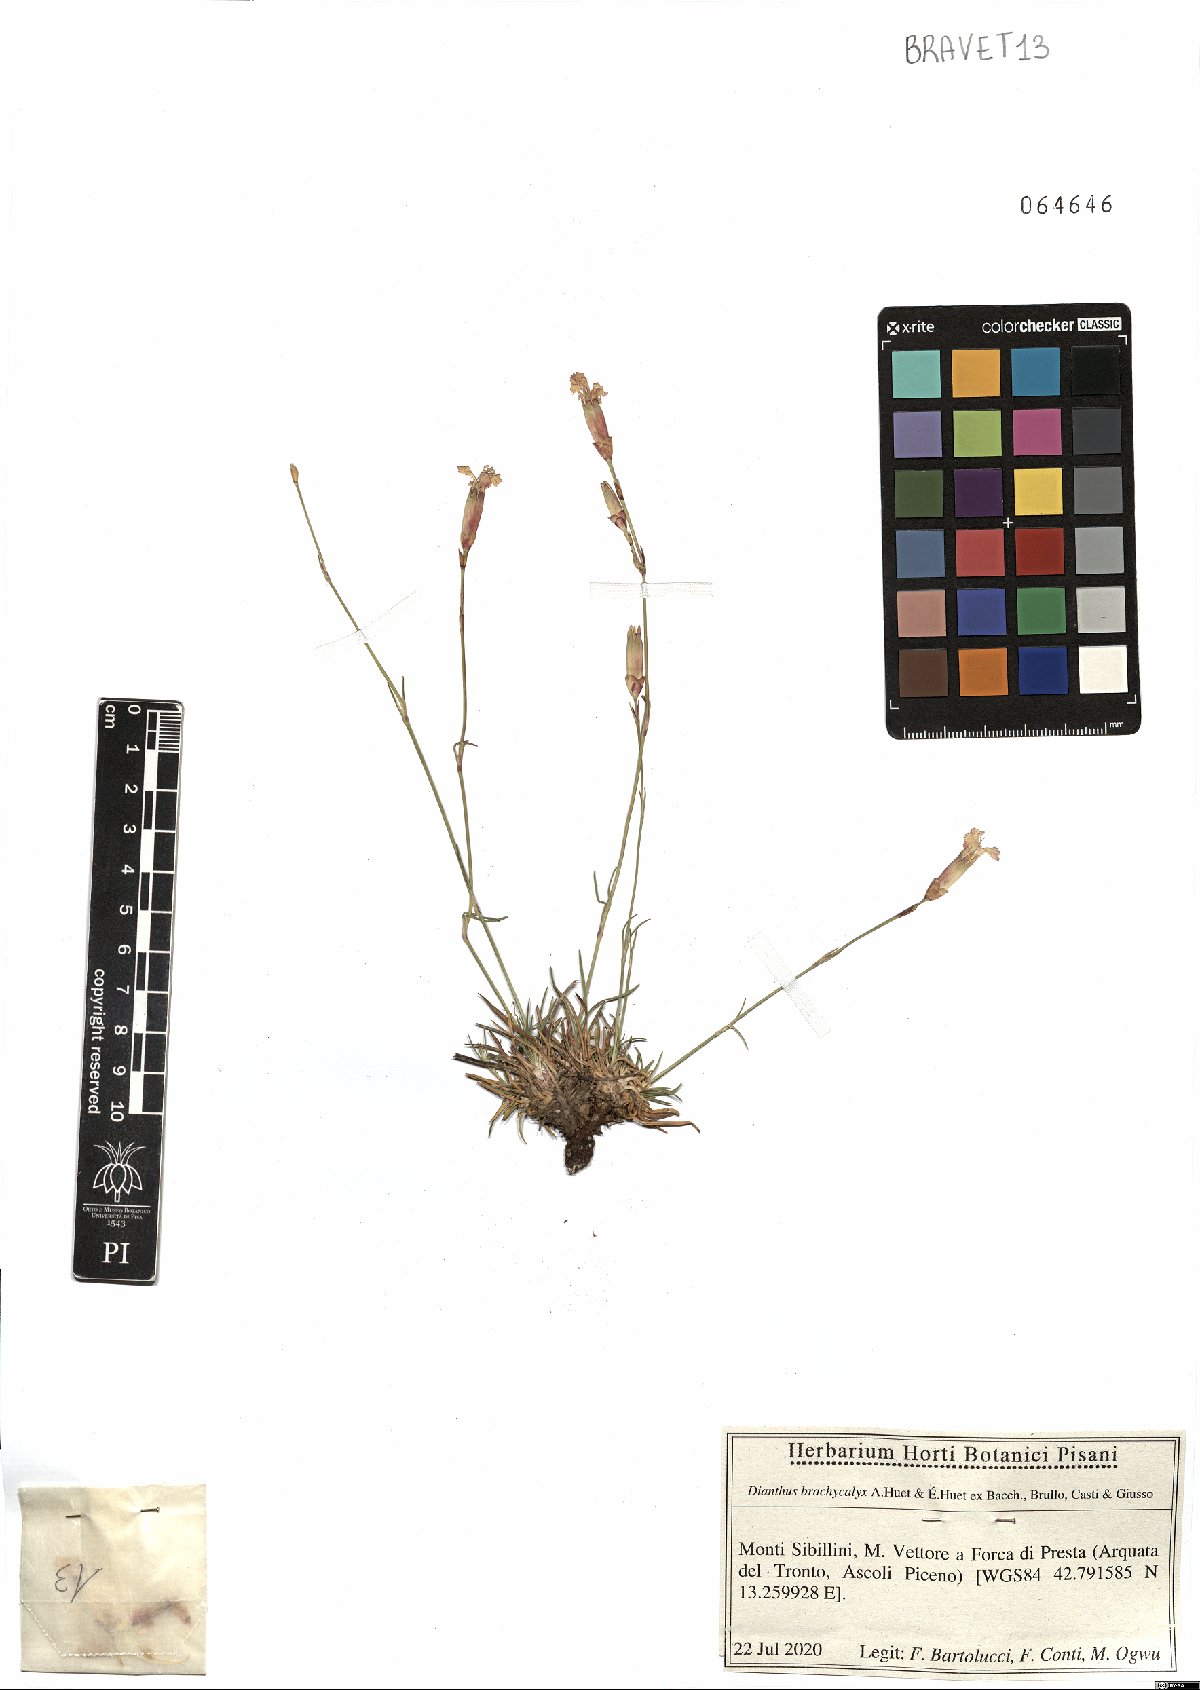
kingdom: Plantae
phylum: Tracheophyta
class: Magnoliopsida
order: Caryophyllales
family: Caryophyllaceae
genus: Dianthus
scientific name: Dianthus brachycalyx
